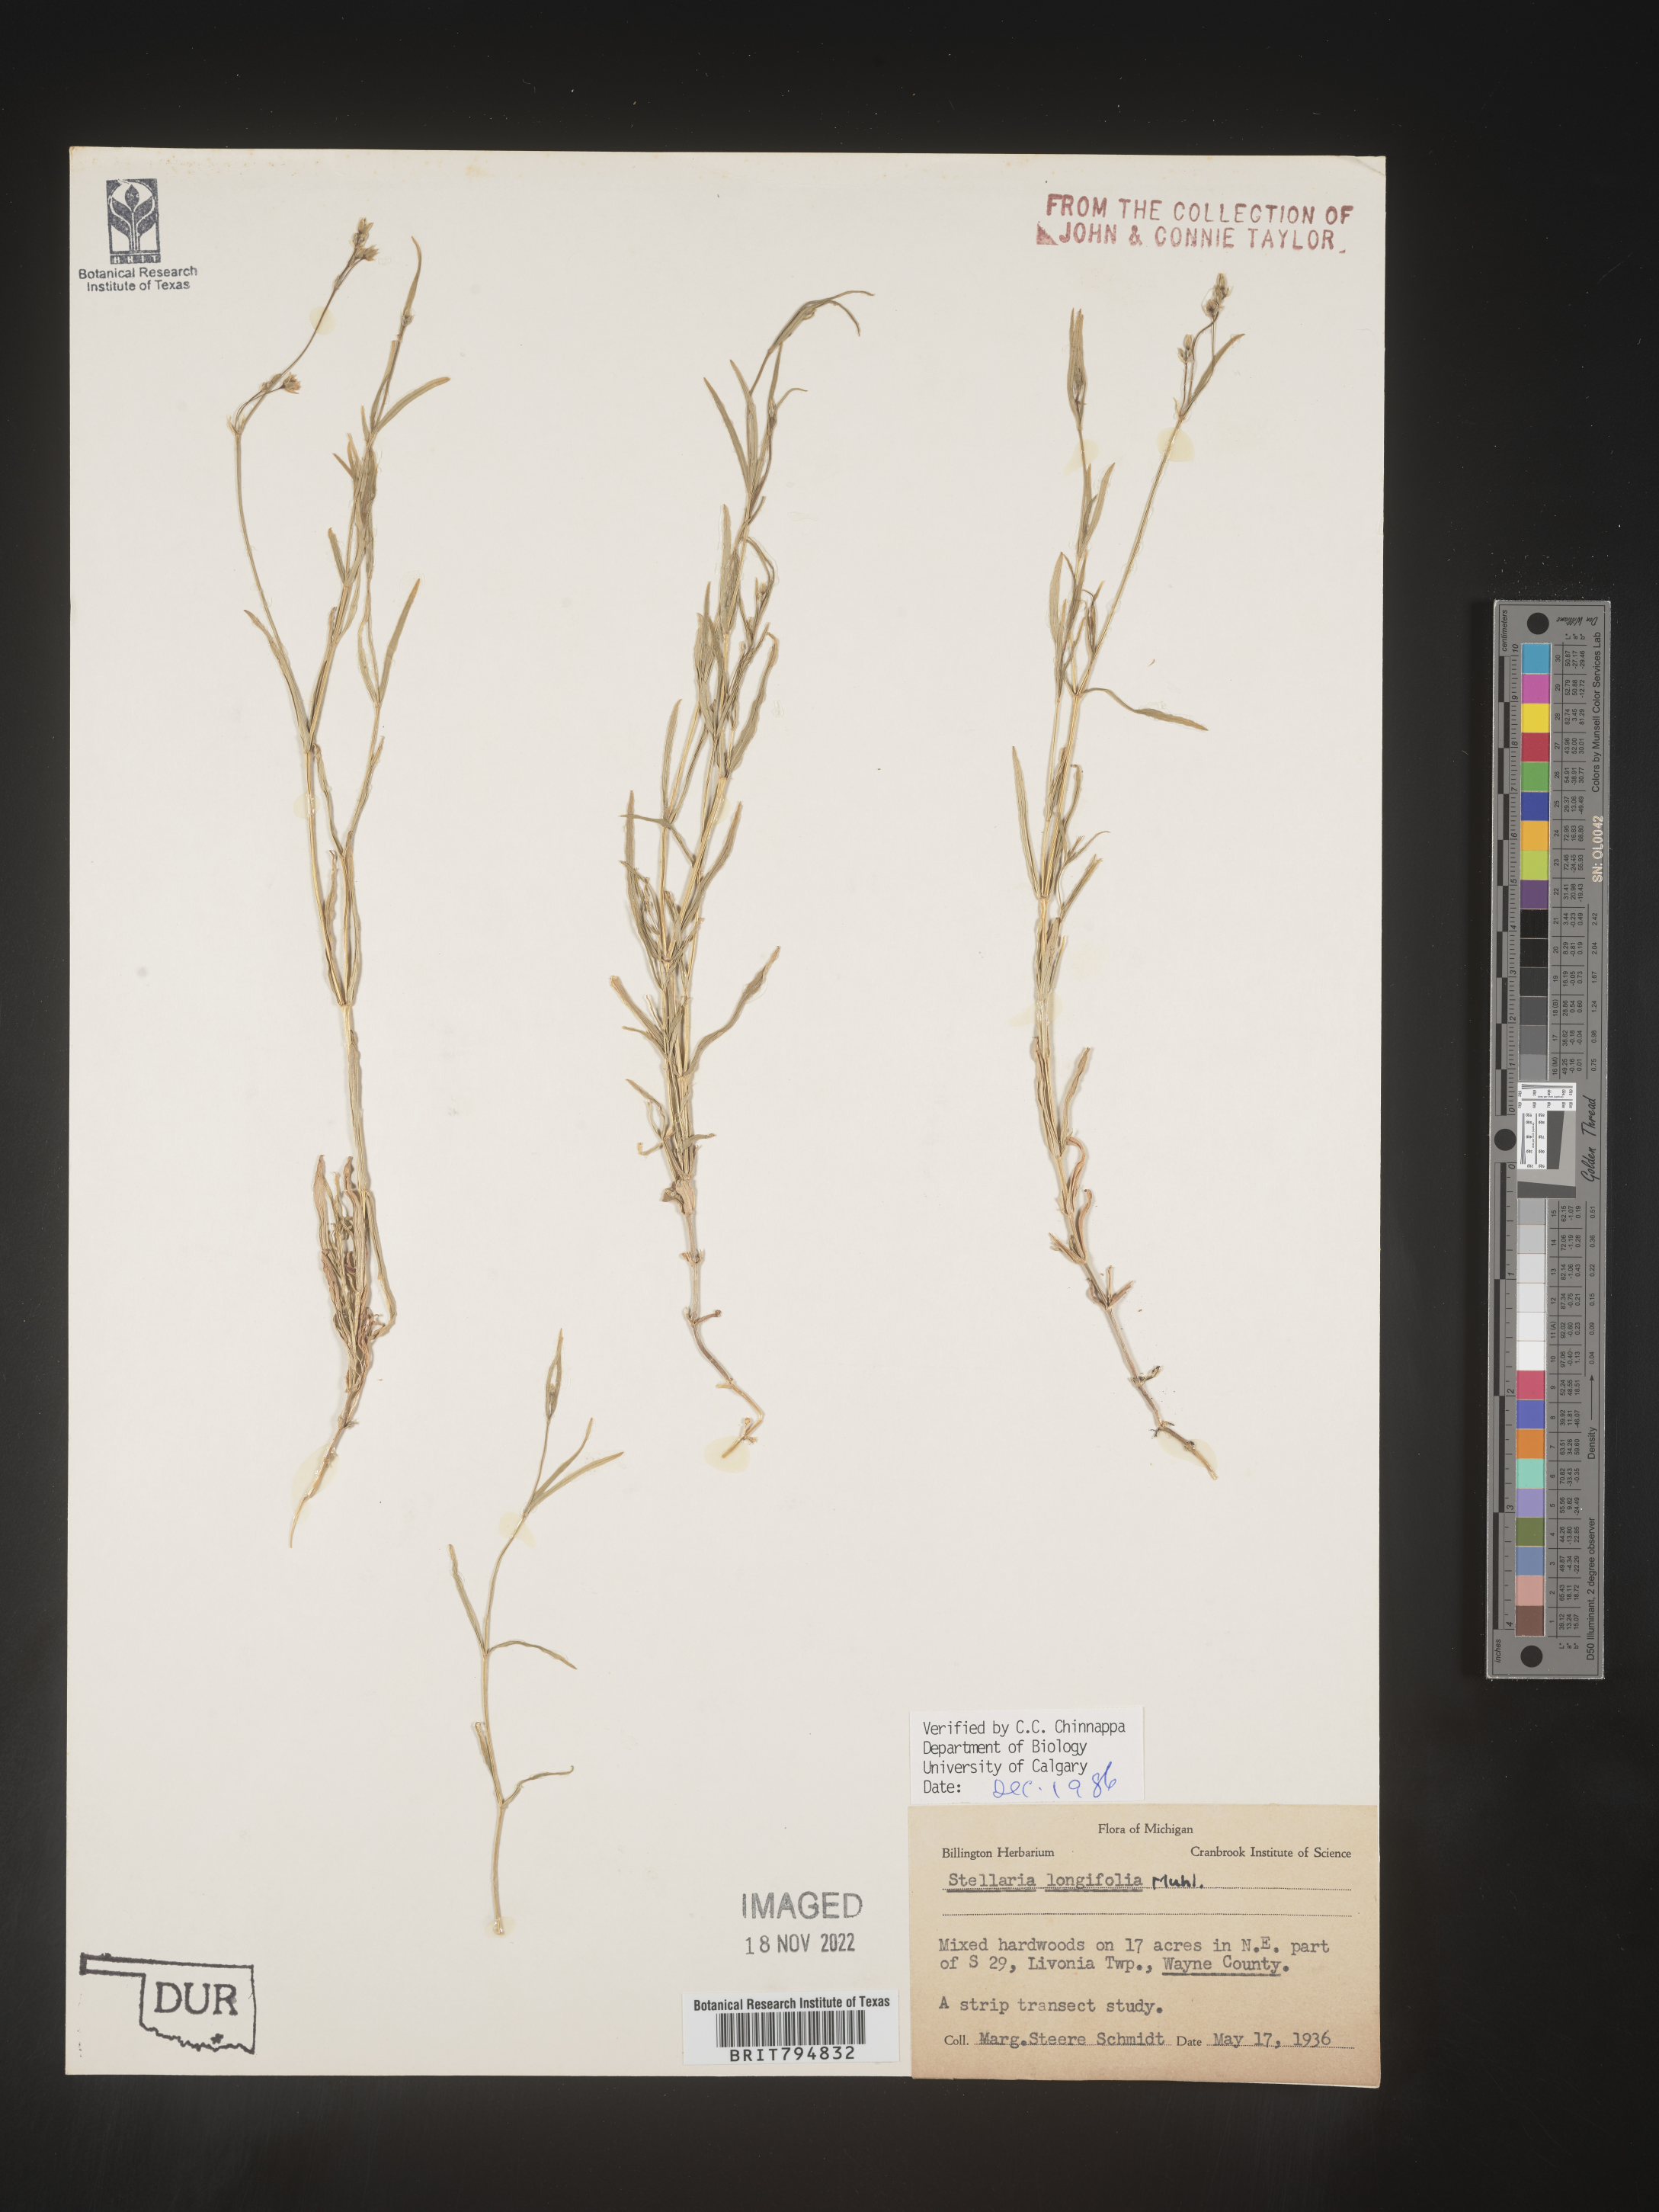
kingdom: Plantae
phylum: Tracheophyta
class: Magnoliopsida
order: Caryophyllales
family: Caryophyllaceae
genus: Stellaria
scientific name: Stellaria longifolia
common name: Long-leaved chickweed
